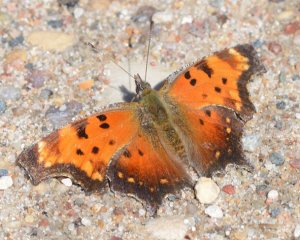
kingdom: Animalia
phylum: Arthropoda
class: Insecta
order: Lepidoptera
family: Nymphalidae
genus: Polygonia
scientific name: Polygonia progne
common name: Gray Comma
